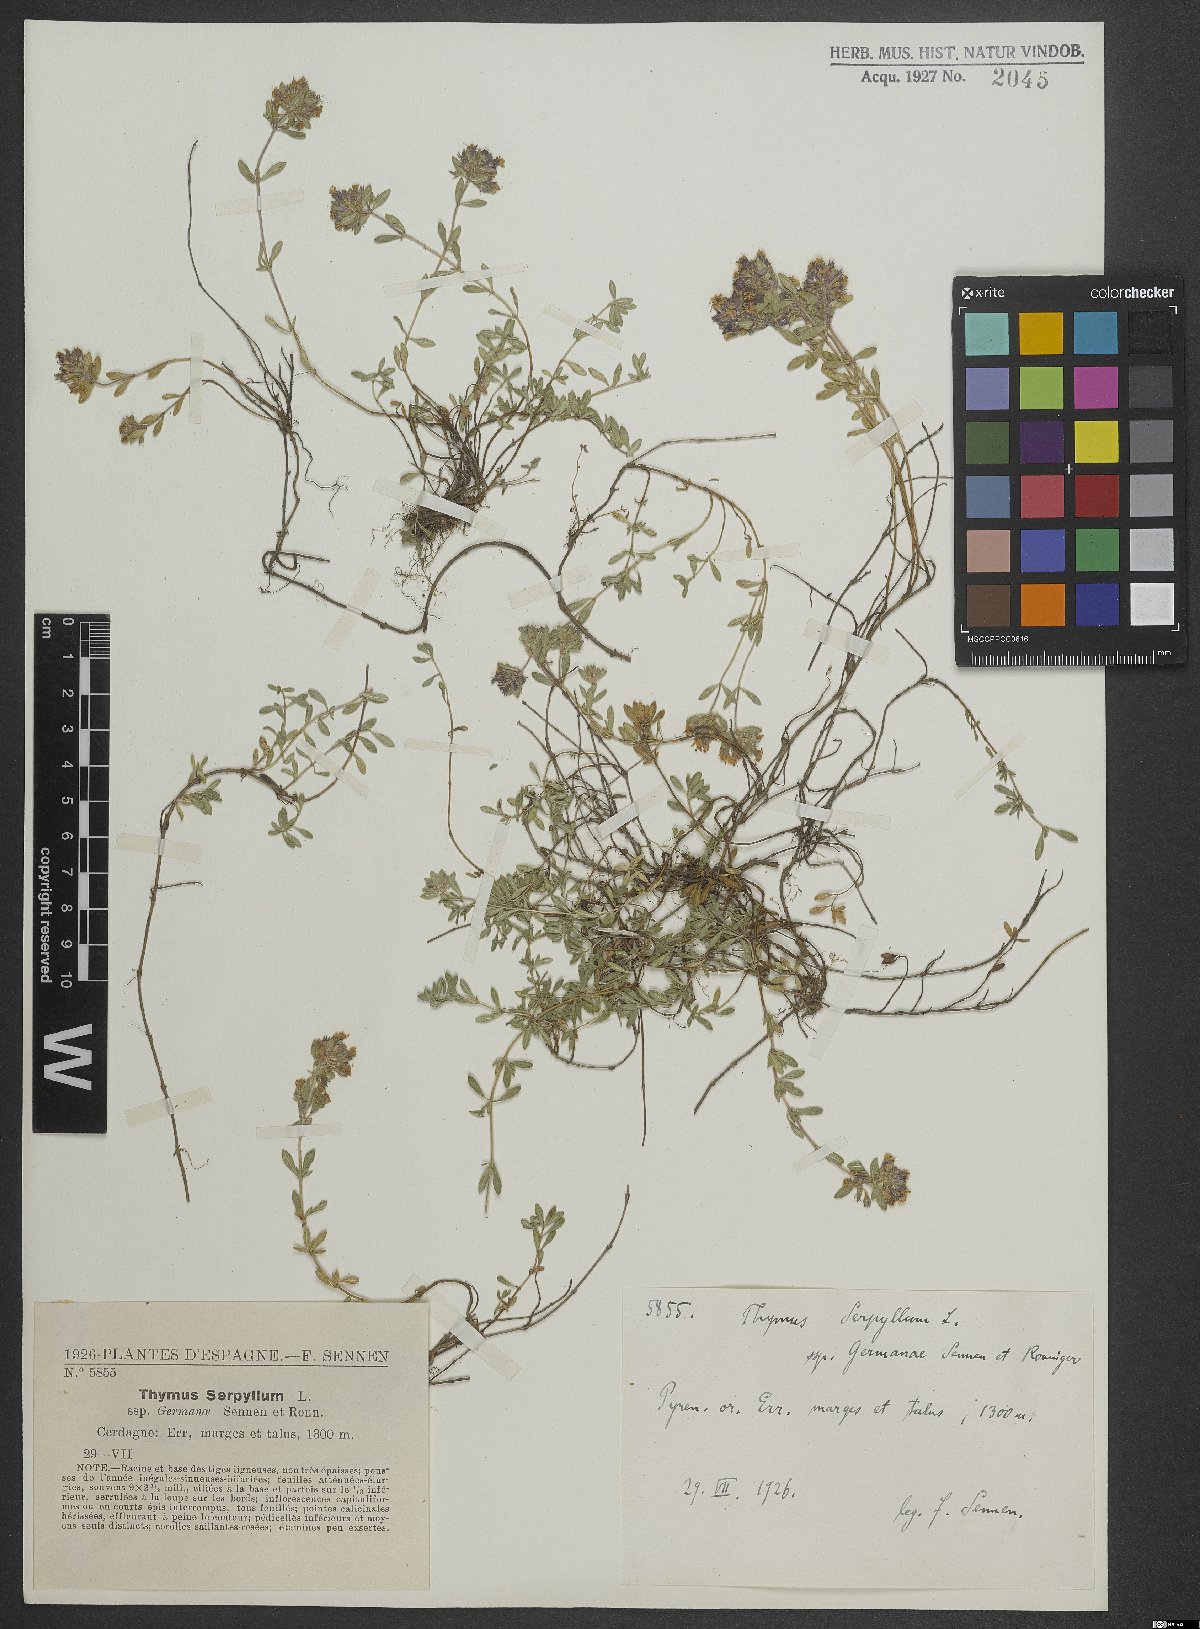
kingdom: Plantae
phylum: Tracheophyta
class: Magnoliopsida
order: Lamiales
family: Lamiaceae
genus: Thymus
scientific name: Thymus serpyllum
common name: Breckland thyme
